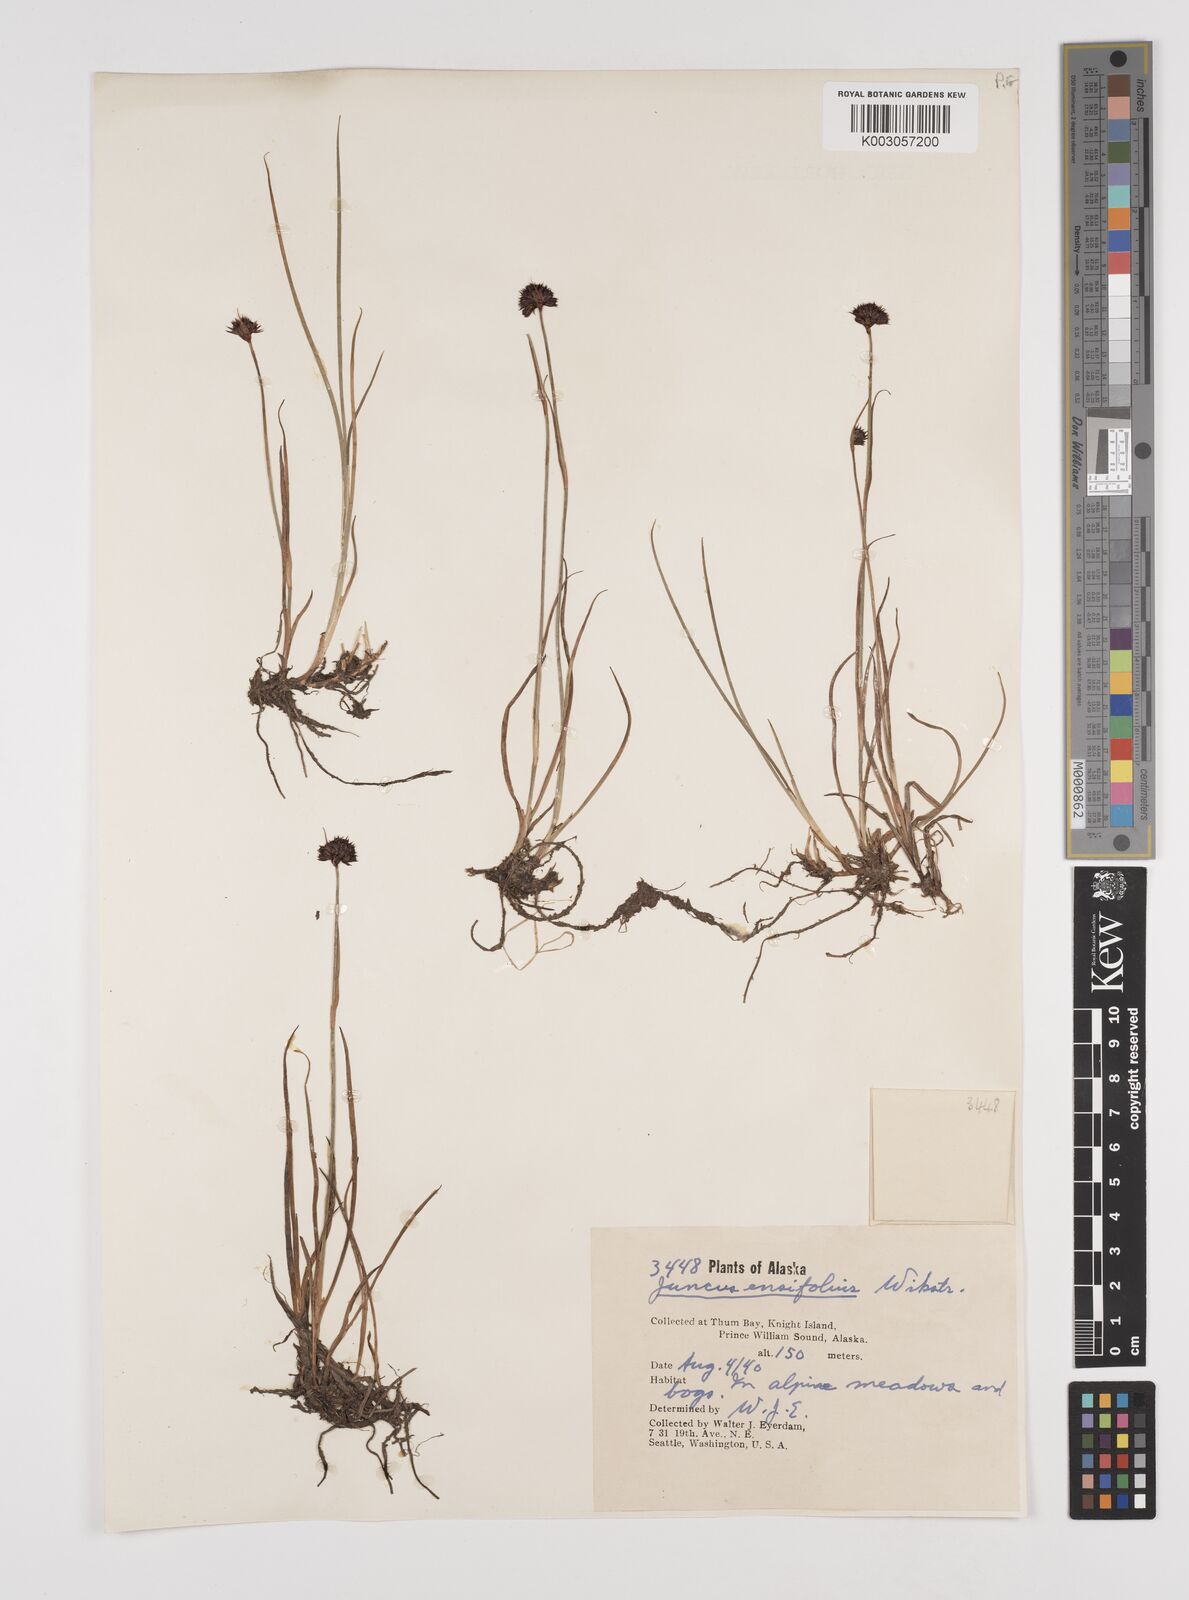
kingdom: Plantae
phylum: Tracheophyta
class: Liliopsida
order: Poales
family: Juncaceae
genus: Juncus
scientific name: Juncus ensifolius
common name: Sword-leaved rush
